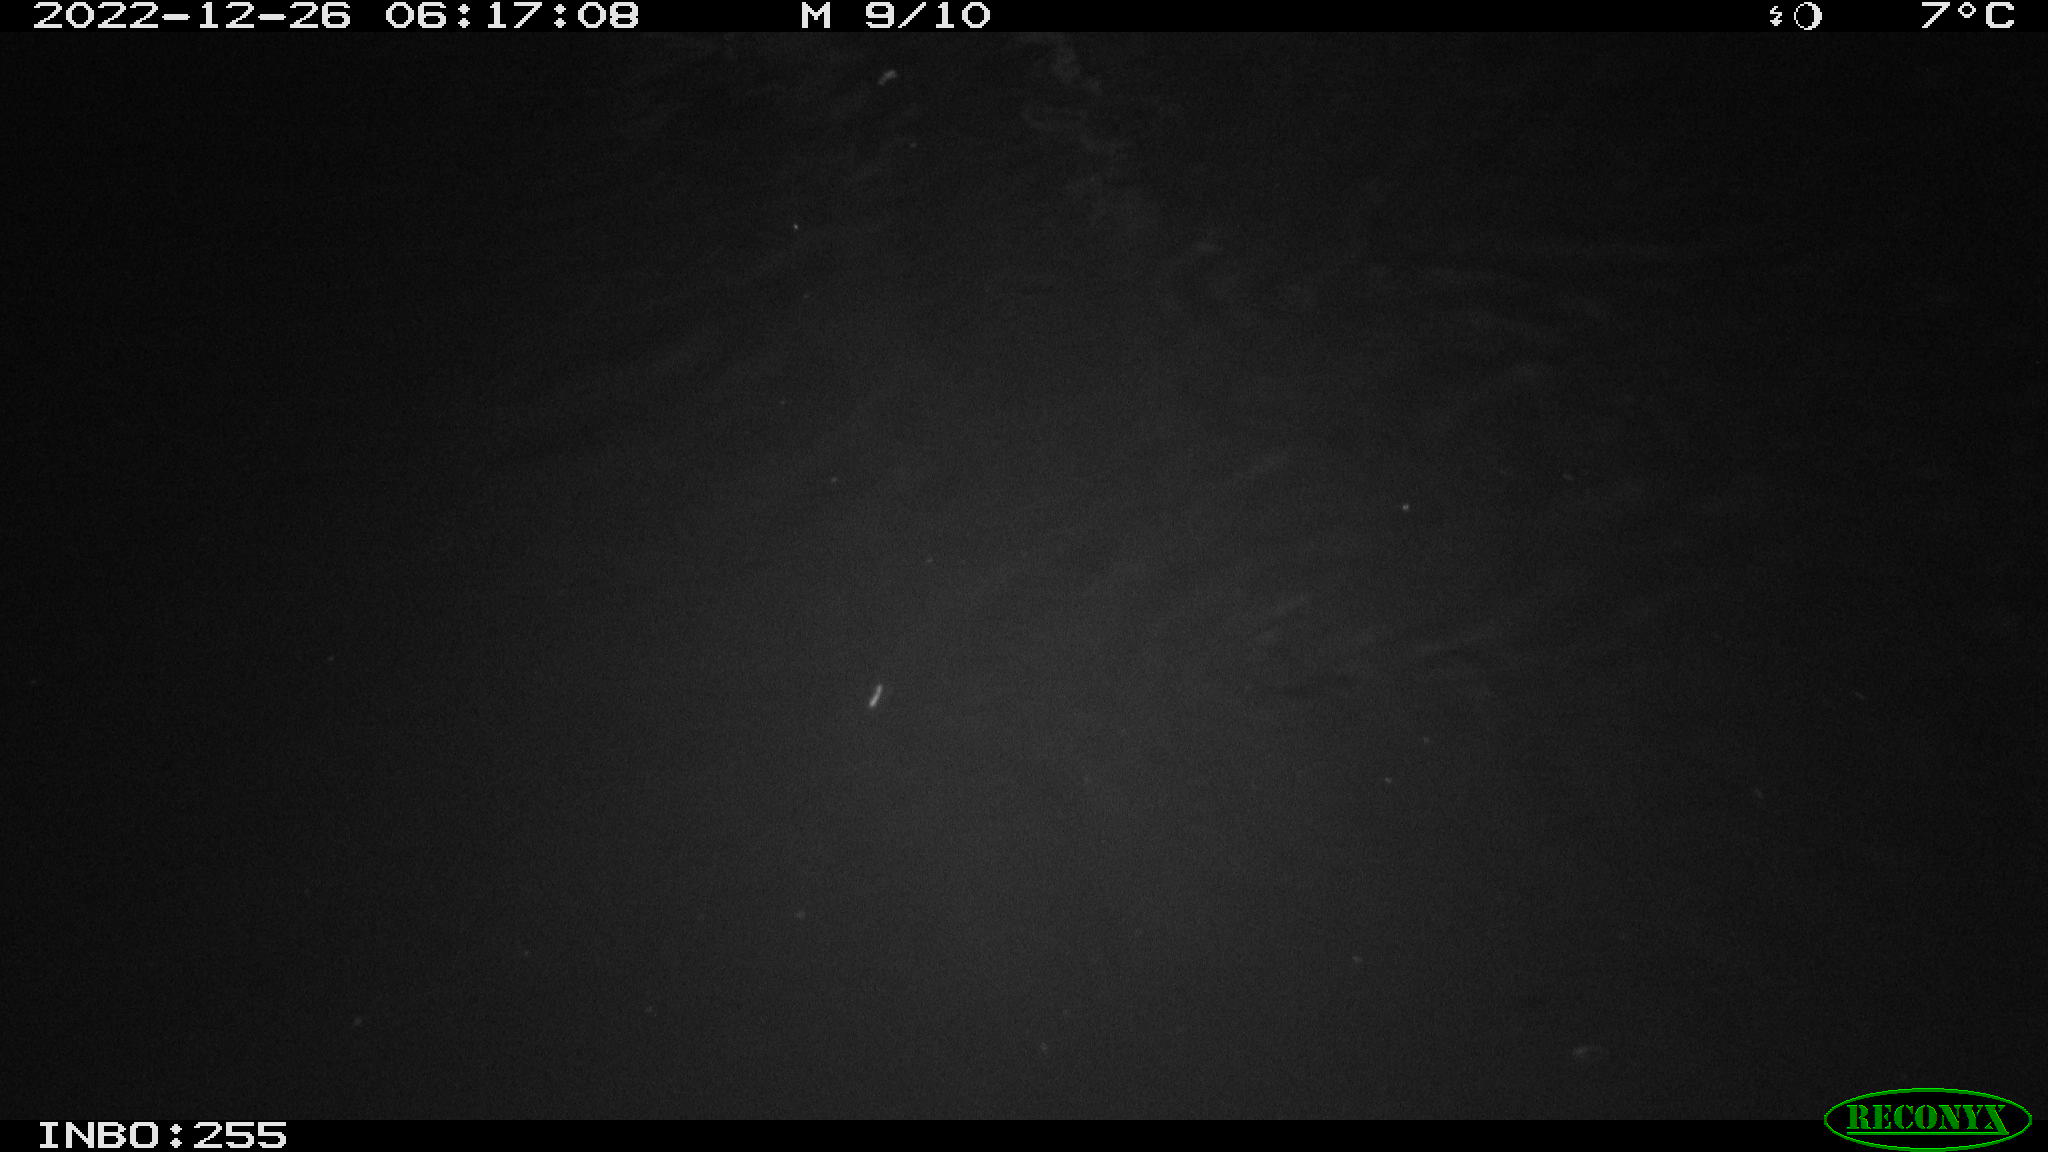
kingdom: Animalia
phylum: Chordata
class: Mammalia
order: Rodentia
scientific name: Rodentia
